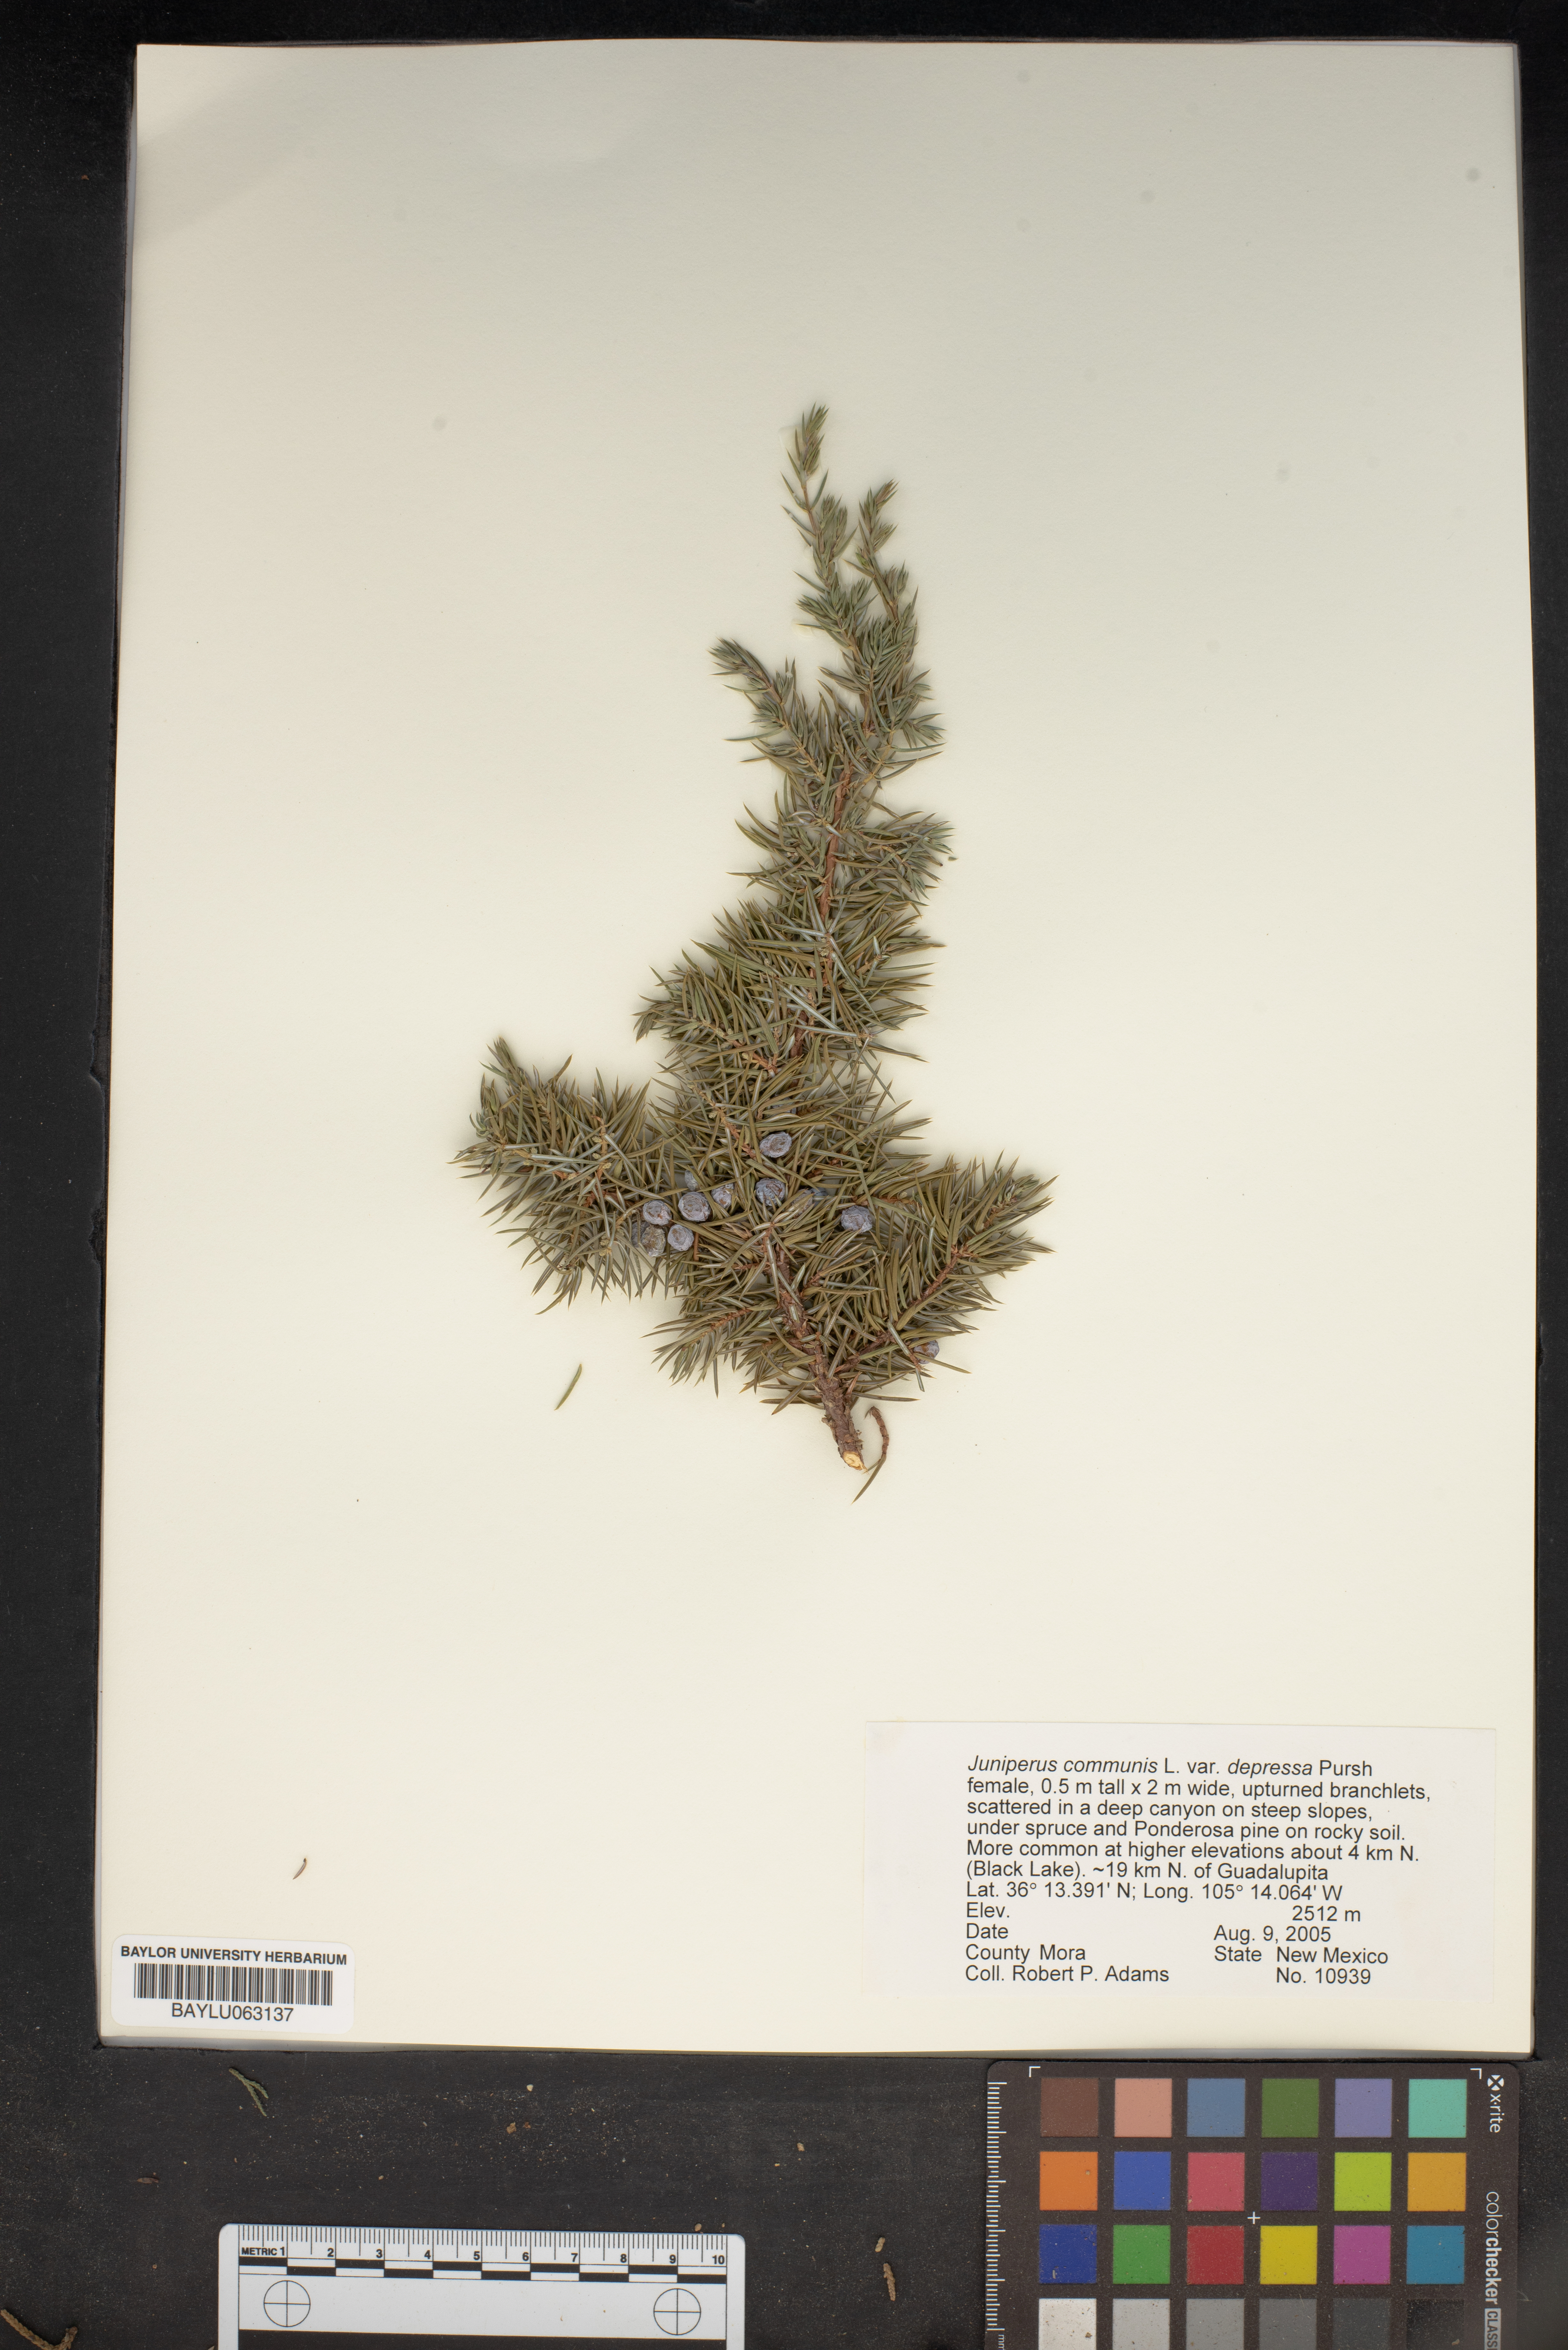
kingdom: Plantae
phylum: Tracheophyta
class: Pinopsida
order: Pinales
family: Cupressaceae
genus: Juniperus
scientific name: Juniperus communis
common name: Common juniper
